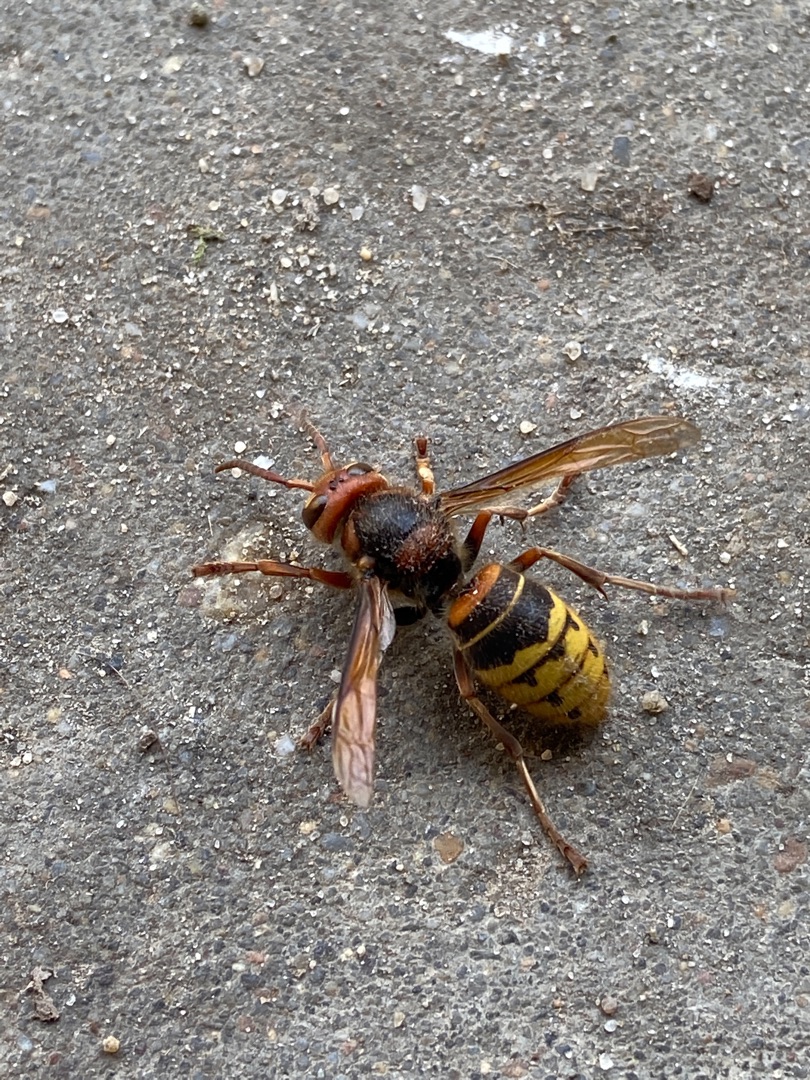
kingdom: Animalia
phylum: Arthropoda
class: Insecta
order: Hymenoptera
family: Vespidae
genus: Vespa
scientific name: Vespa crabro
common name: Stor gedehams
